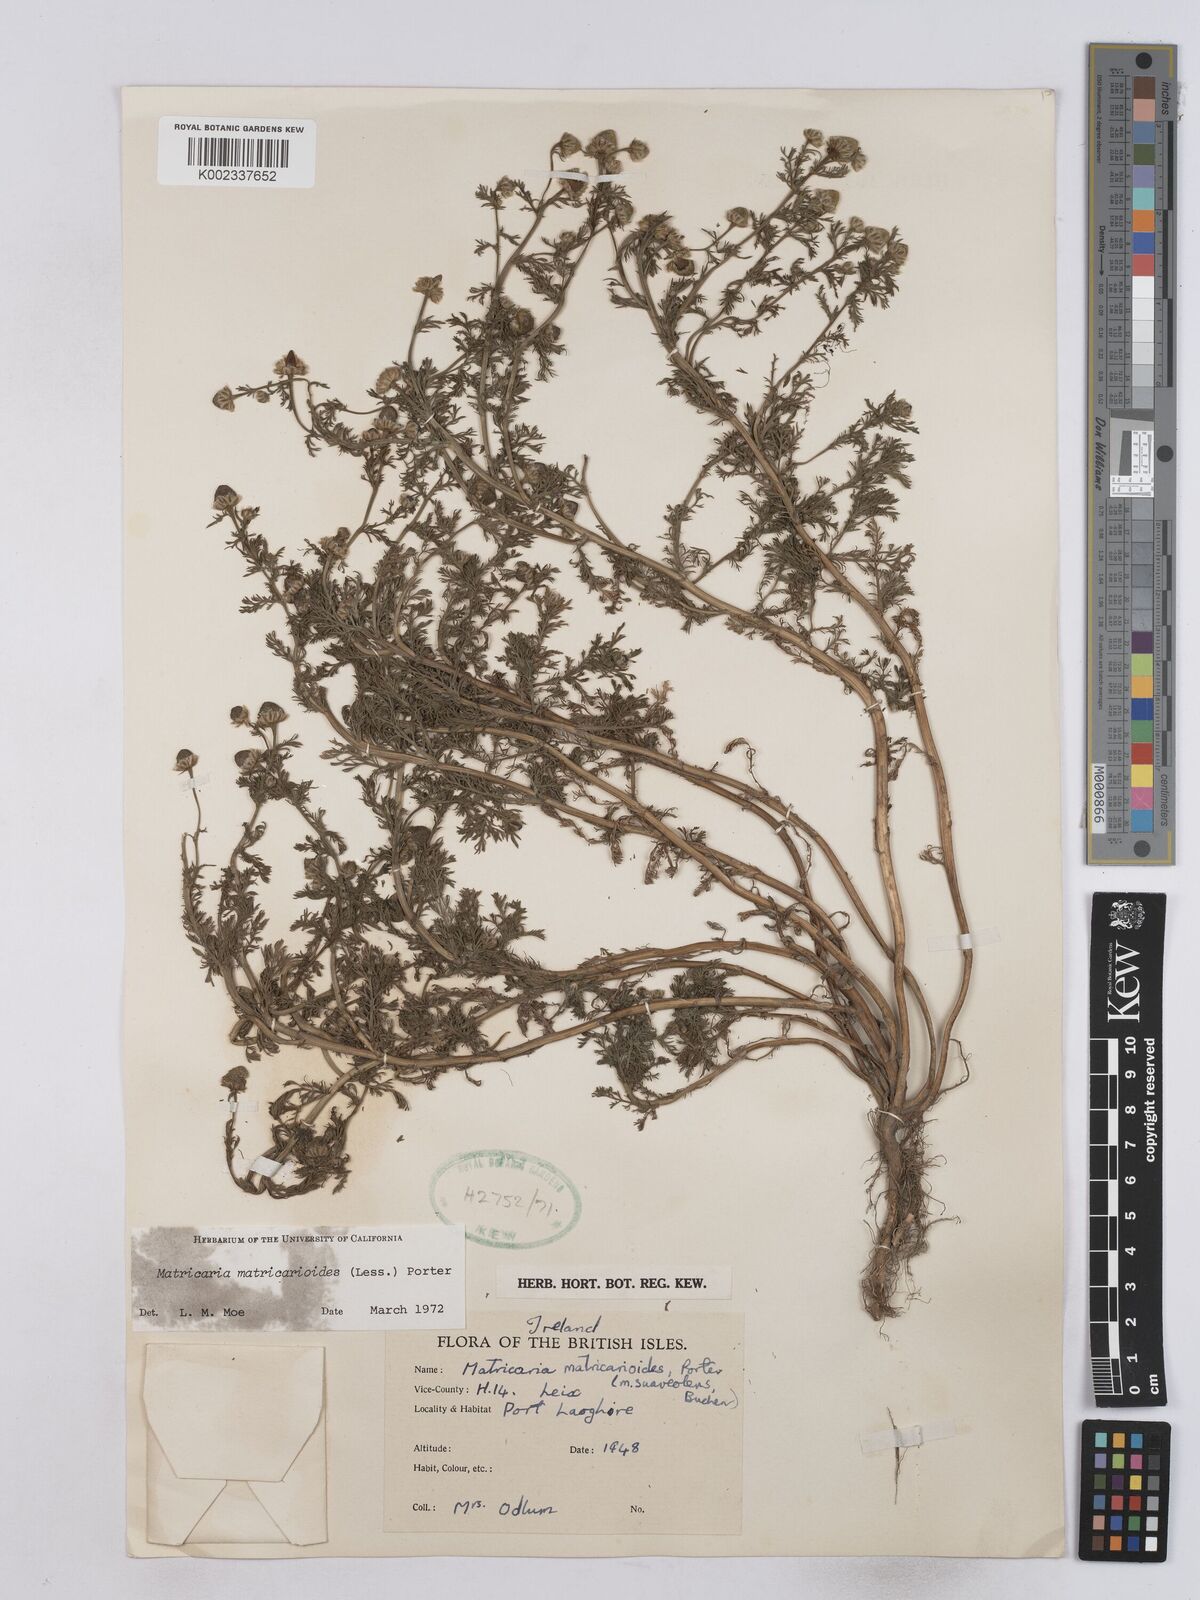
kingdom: Plantae
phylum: Tracheophyta
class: Magnoliopsida
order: Asterales
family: Asteraceae
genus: Matricaria
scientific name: Matricaria discoidea
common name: Disc mayweed
